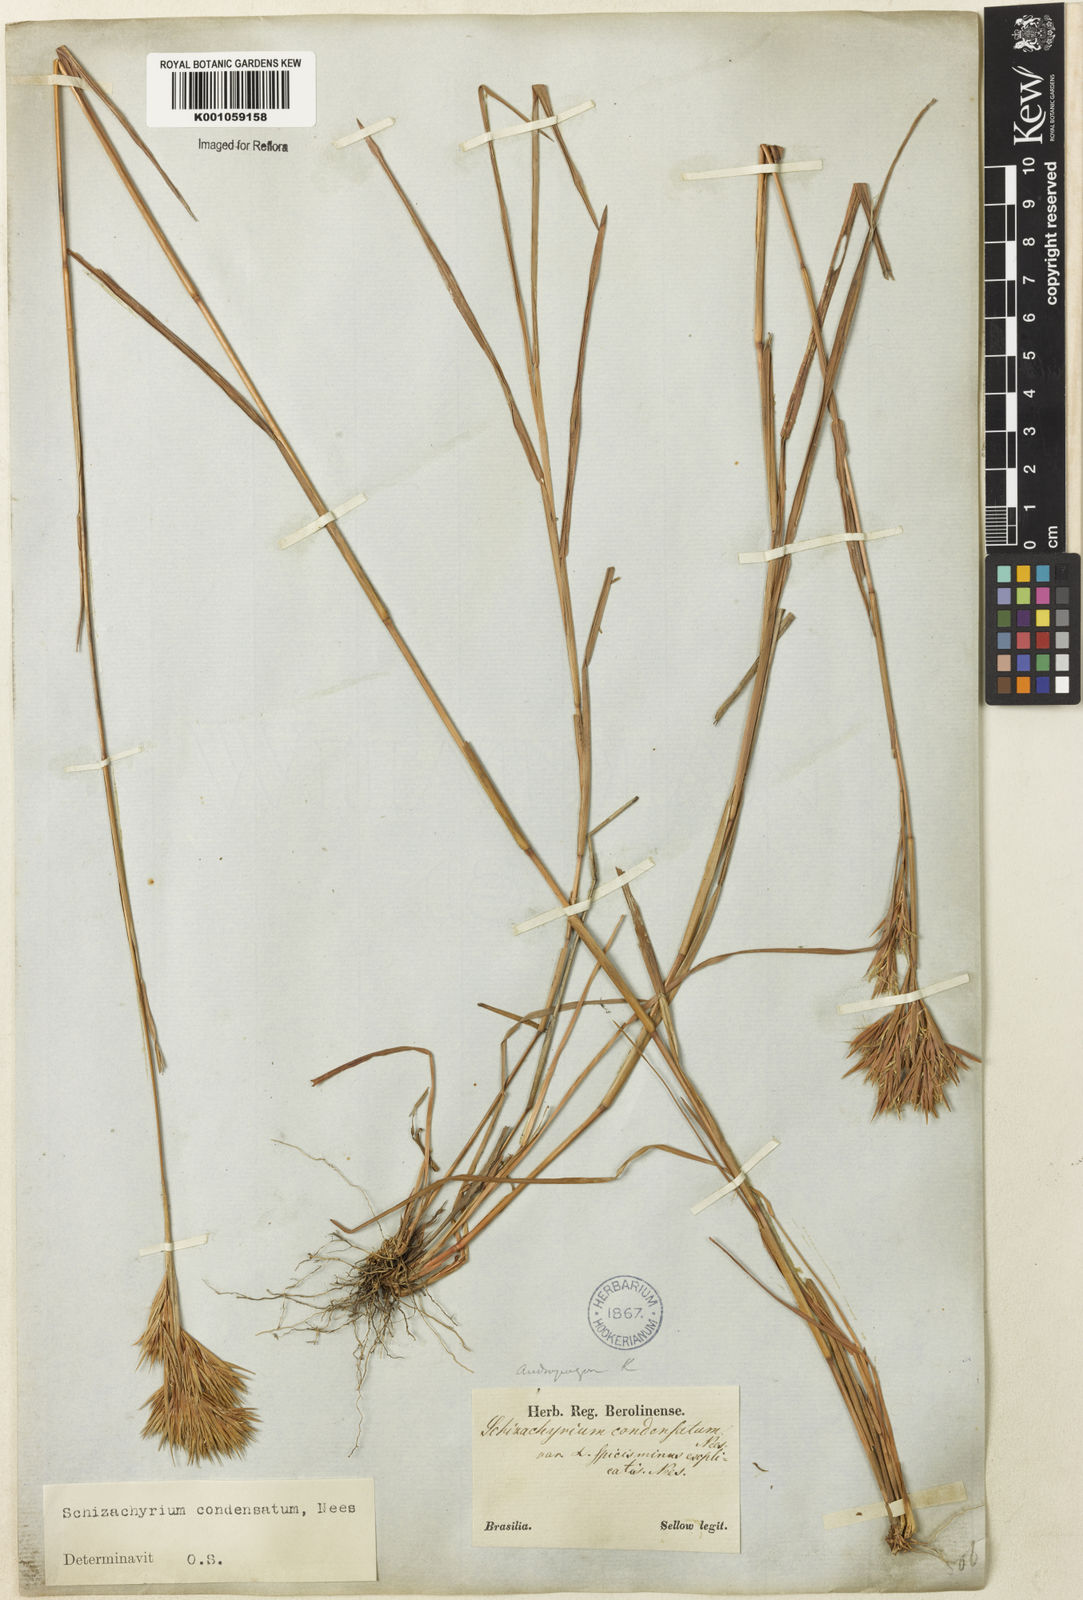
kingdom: Plantae
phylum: Tracheophyta
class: Liliopsida
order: Poales
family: Poaceae
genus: Schizachyrium
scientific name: Schizachyrium condensatum
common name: Bush beardgrass
